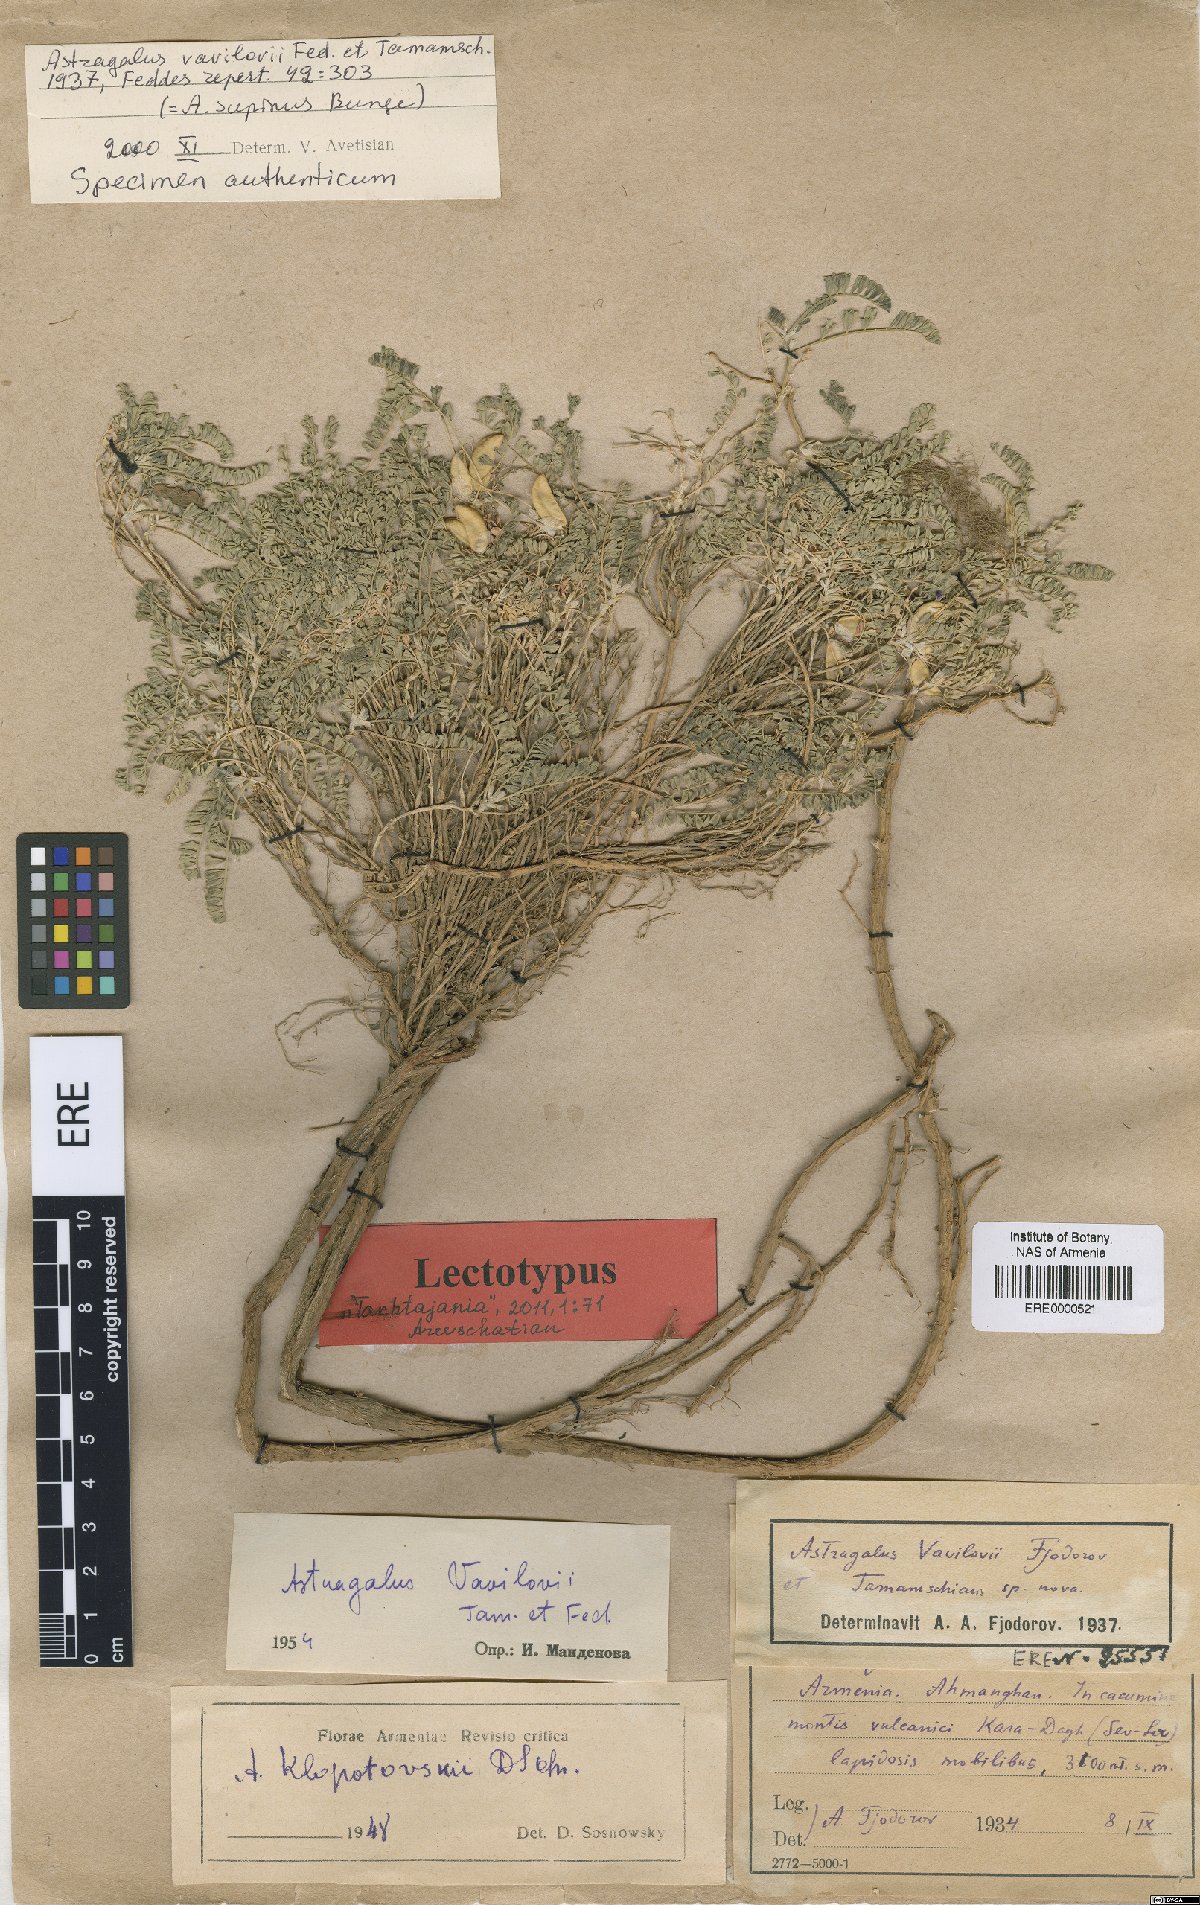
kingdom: Plantae
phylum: Tracheophyta
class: Magnoliopsida
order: Fabales
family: Fabaceae
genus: Astragalus
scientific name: Astragalus vavilovii
